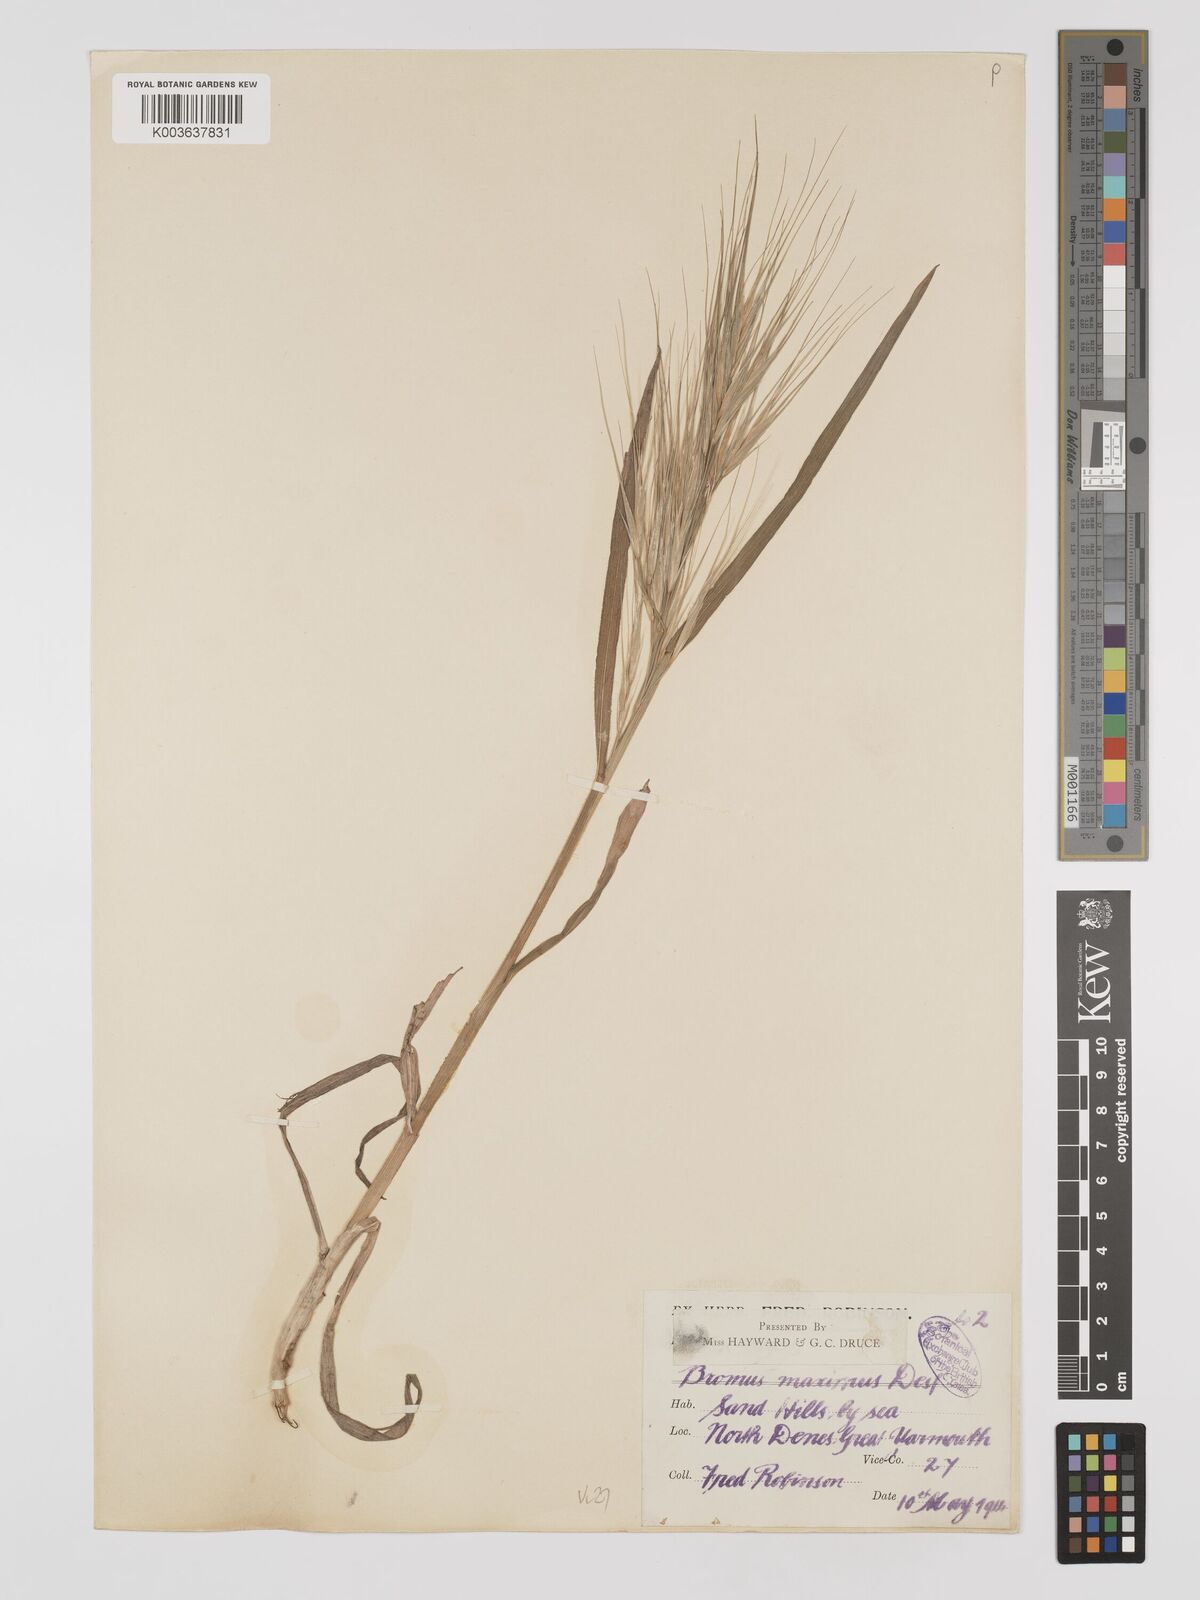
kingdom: Plantae
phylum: Tracheophyta
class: Liliopsida
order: Poales
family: Poaceae
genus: Bromus
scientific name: Bromus
